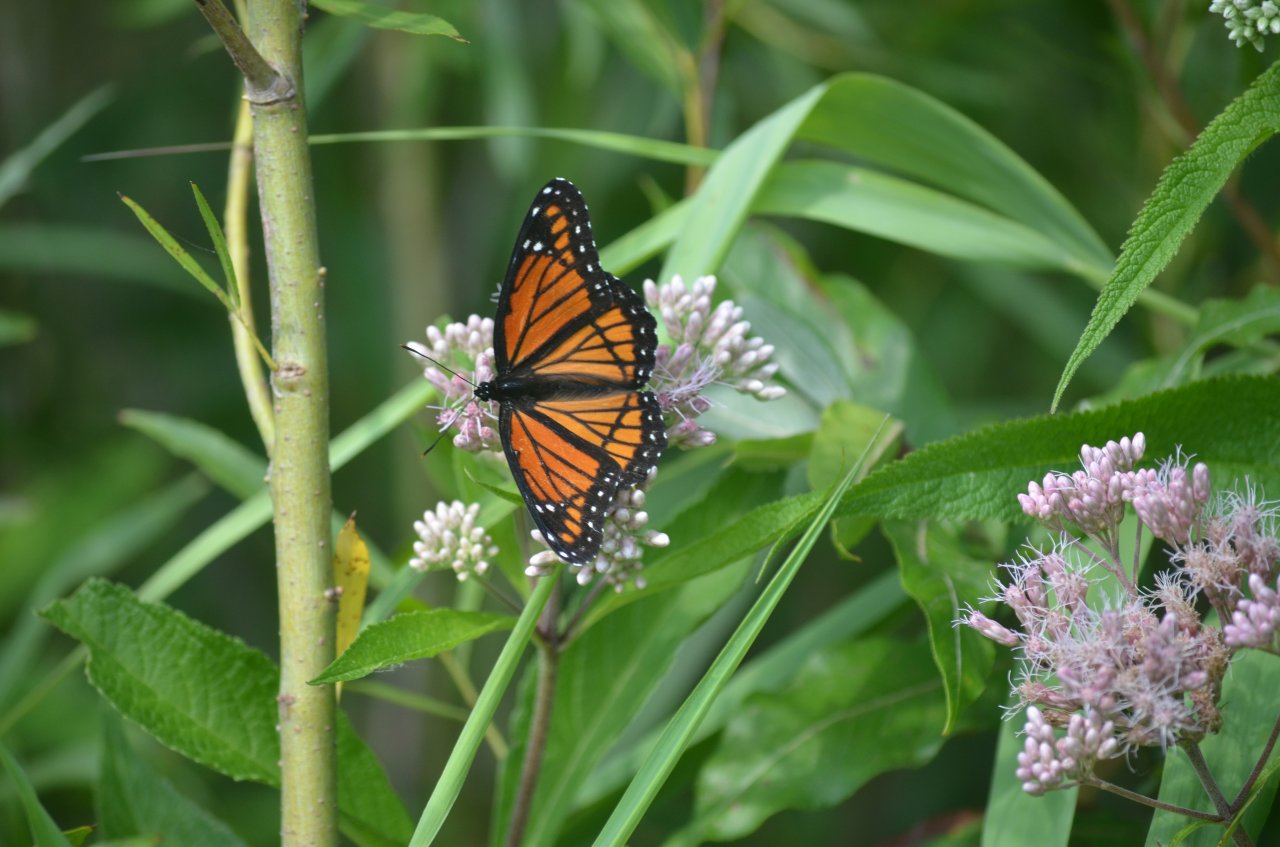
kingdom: Animalia
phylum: Arthropoda
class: Insecta
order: Lepidoptera
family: Nymphalidae
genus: Limenitis
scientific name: Limenitis archippus
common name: Viceroy
